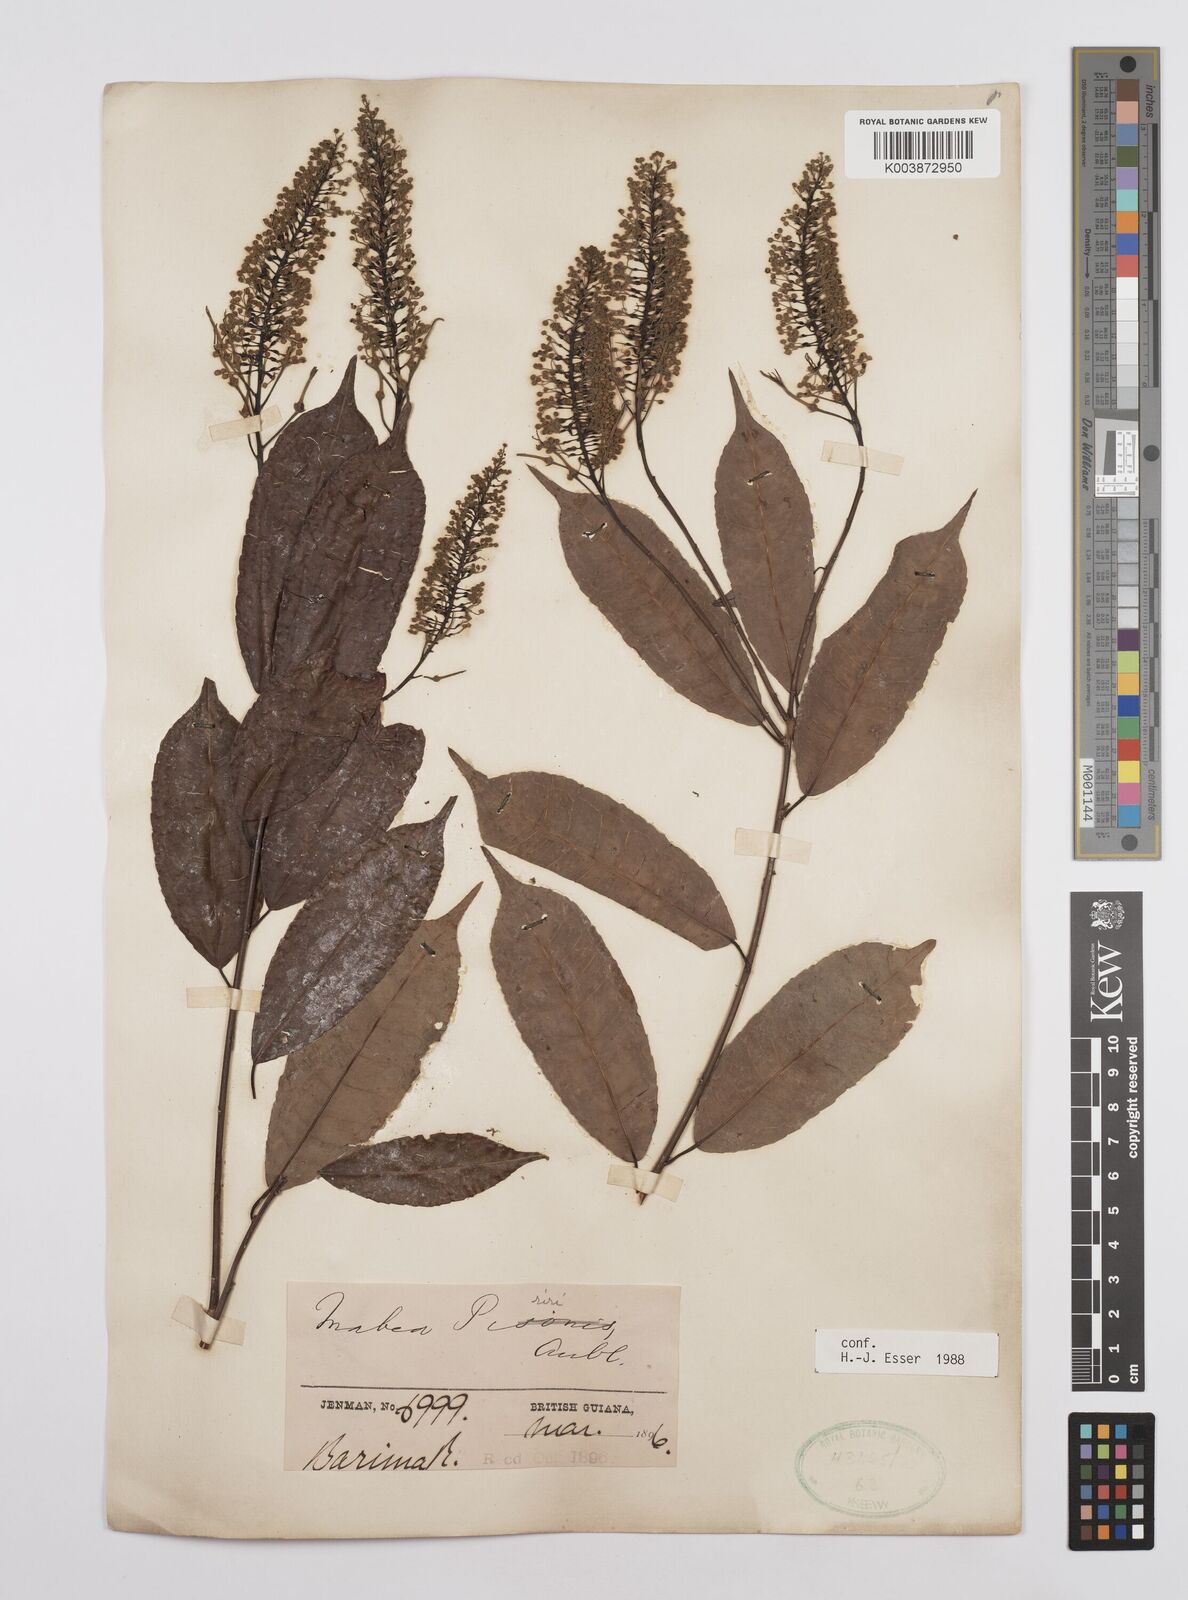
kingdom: Plantae
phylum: Tracheophyta
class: Magnoliopsida
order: Malpighiales
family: Euphorbiaceae
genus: Mabea
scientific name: Mabea piriri
